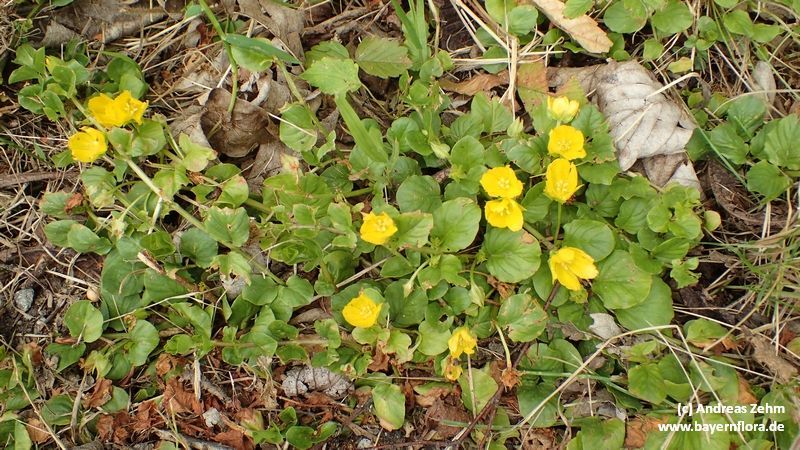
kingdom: Plantae
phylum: Tracheophyta
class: Magnoliopsida
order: Ericales
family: Primulaceae
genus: Lysimachia
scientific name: Lysimachia nummularia
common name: Moneywort
